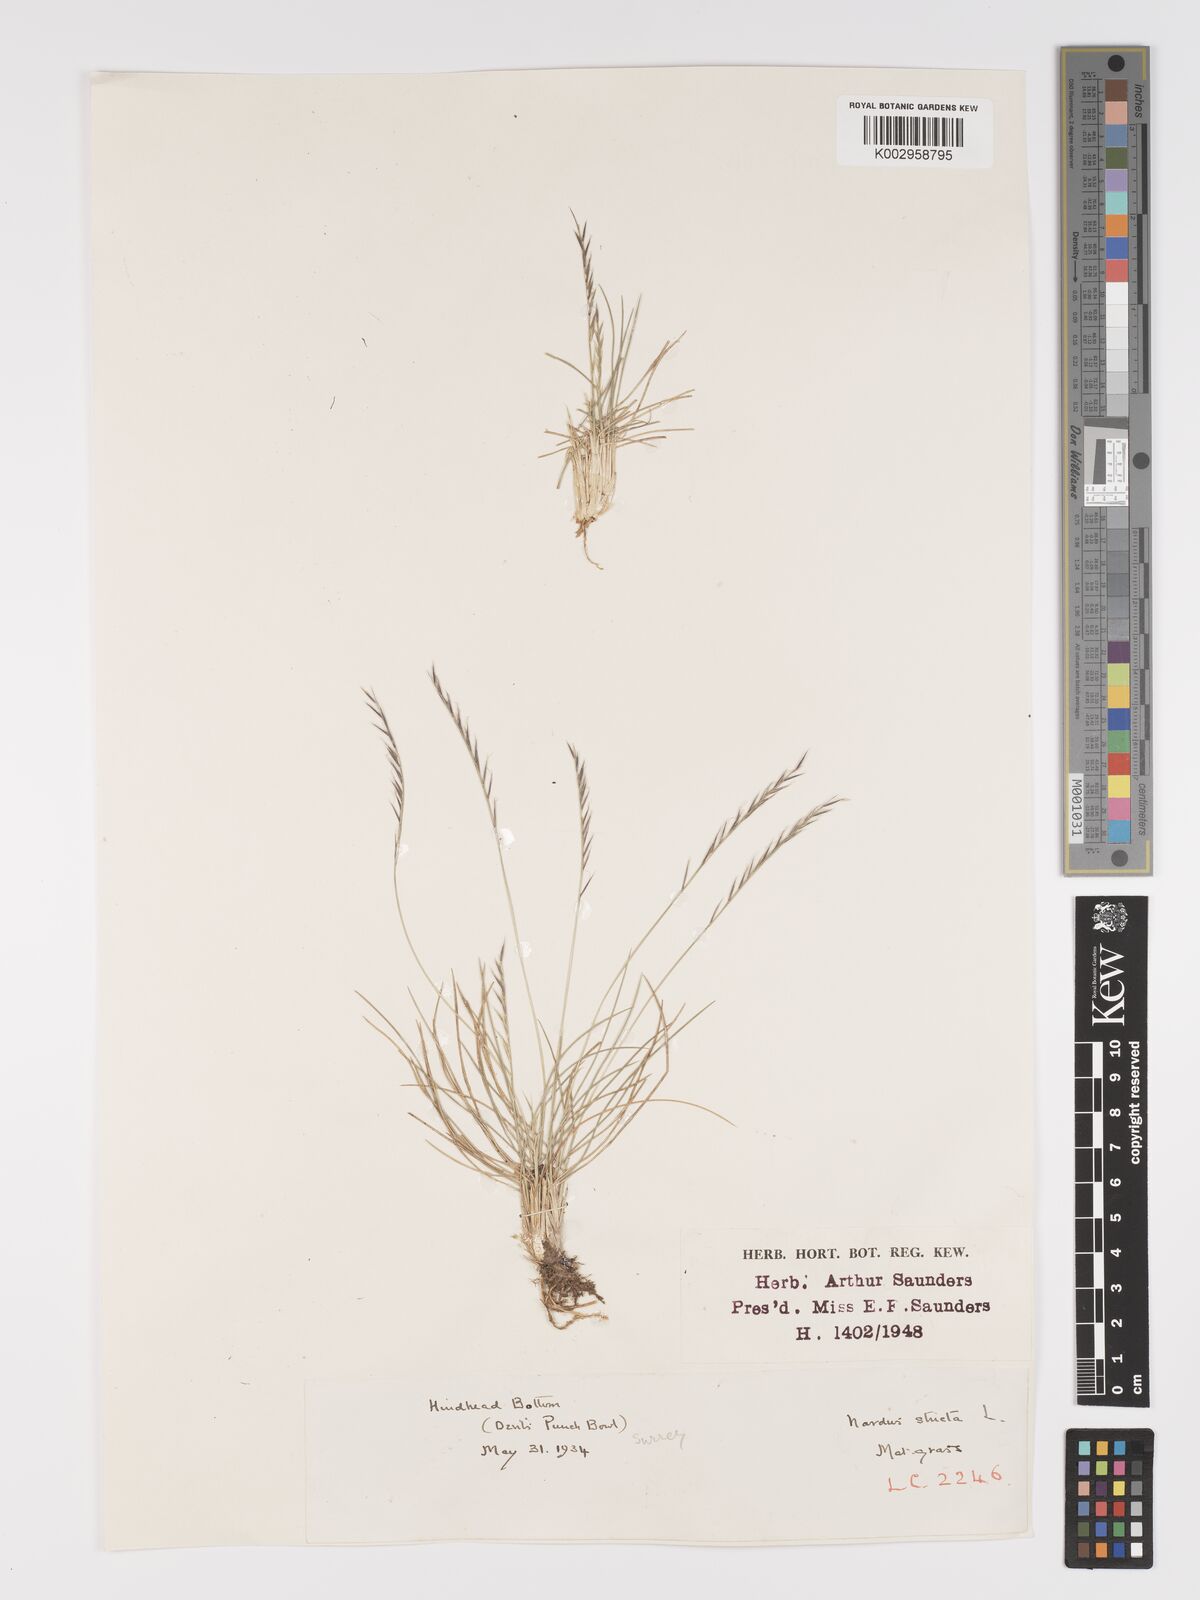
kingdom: Plantae
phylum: Tracheophyta
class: Liliopsida
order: Poales
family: Poaceae
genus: Nardus
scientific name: Nardus stricta
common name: Mat-grass
